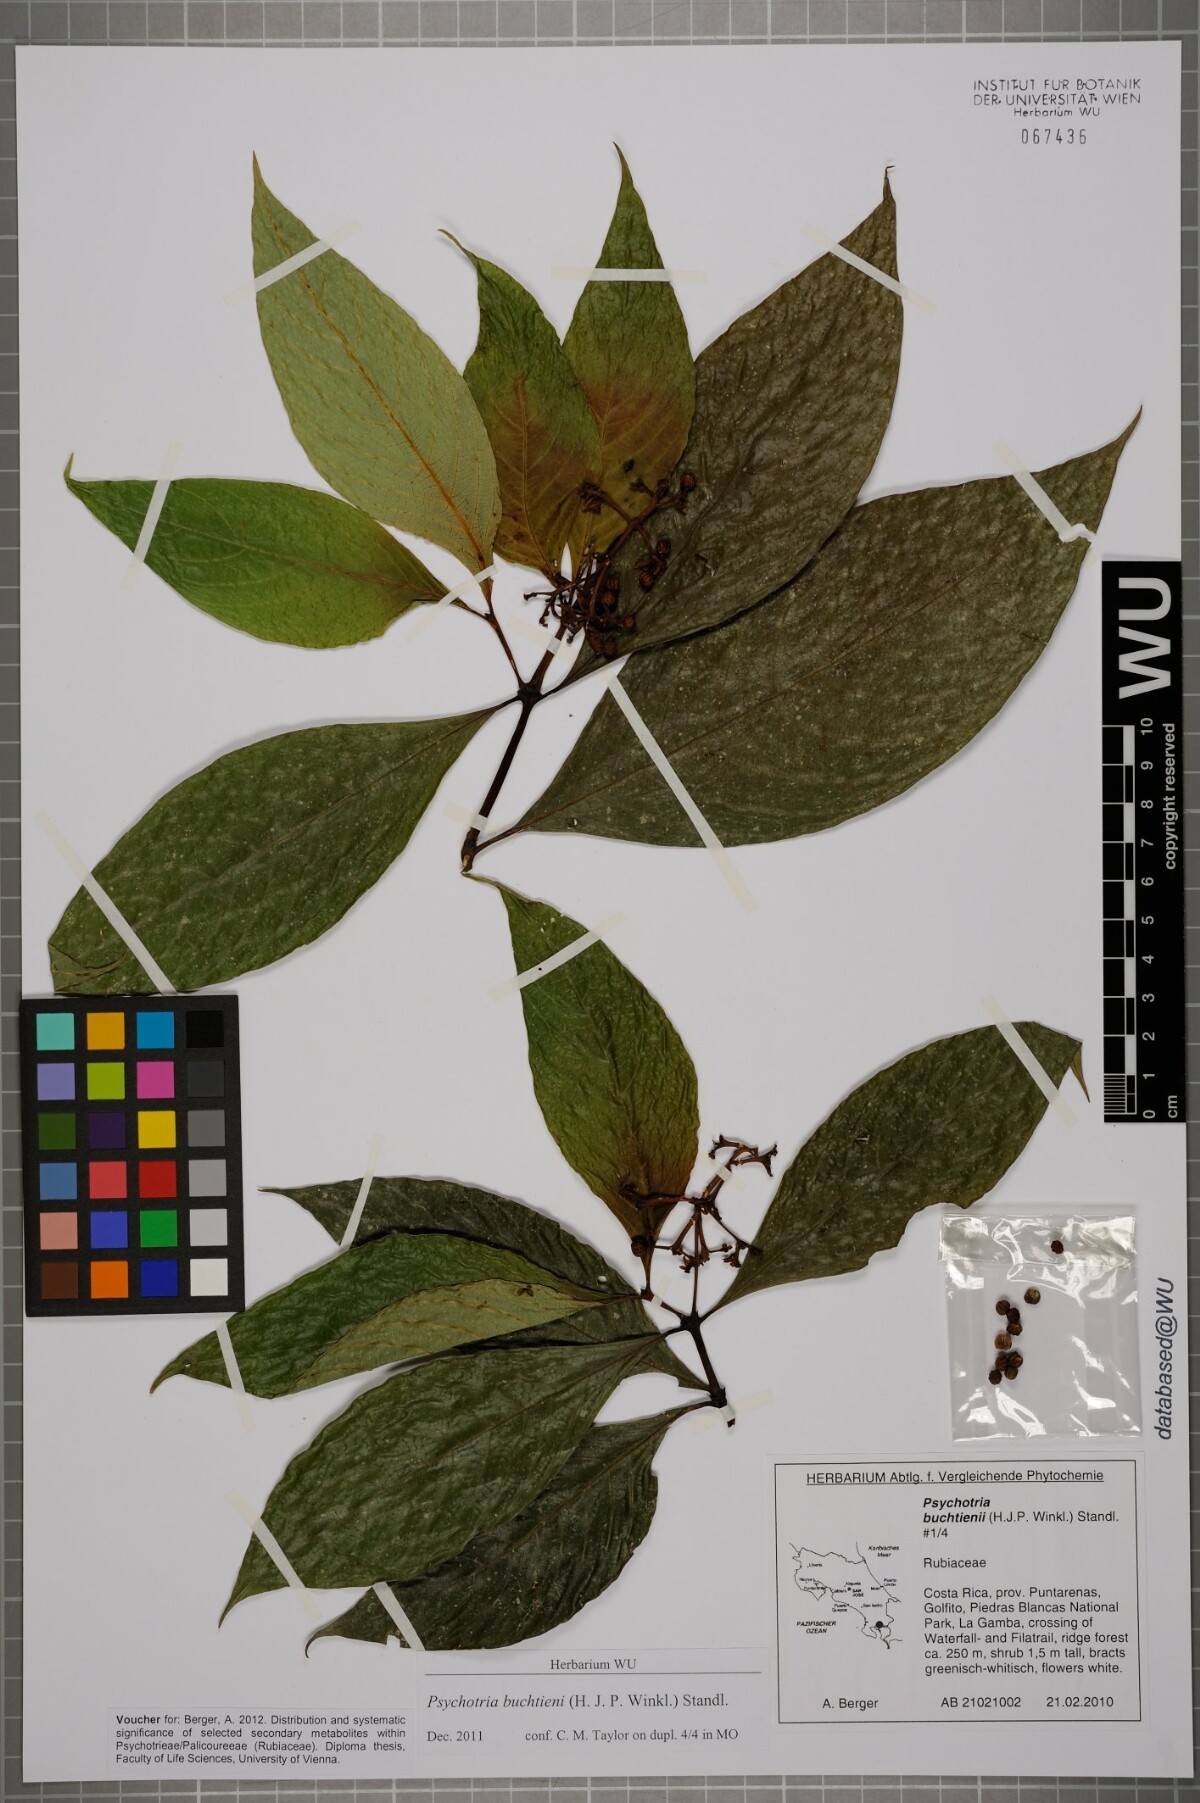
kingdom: Plantae
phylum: Tracheophyta
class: Magnoliopsida
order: Gentianales
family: Rubiaceae
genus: Palicourea
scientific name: Palicourea winkleri
